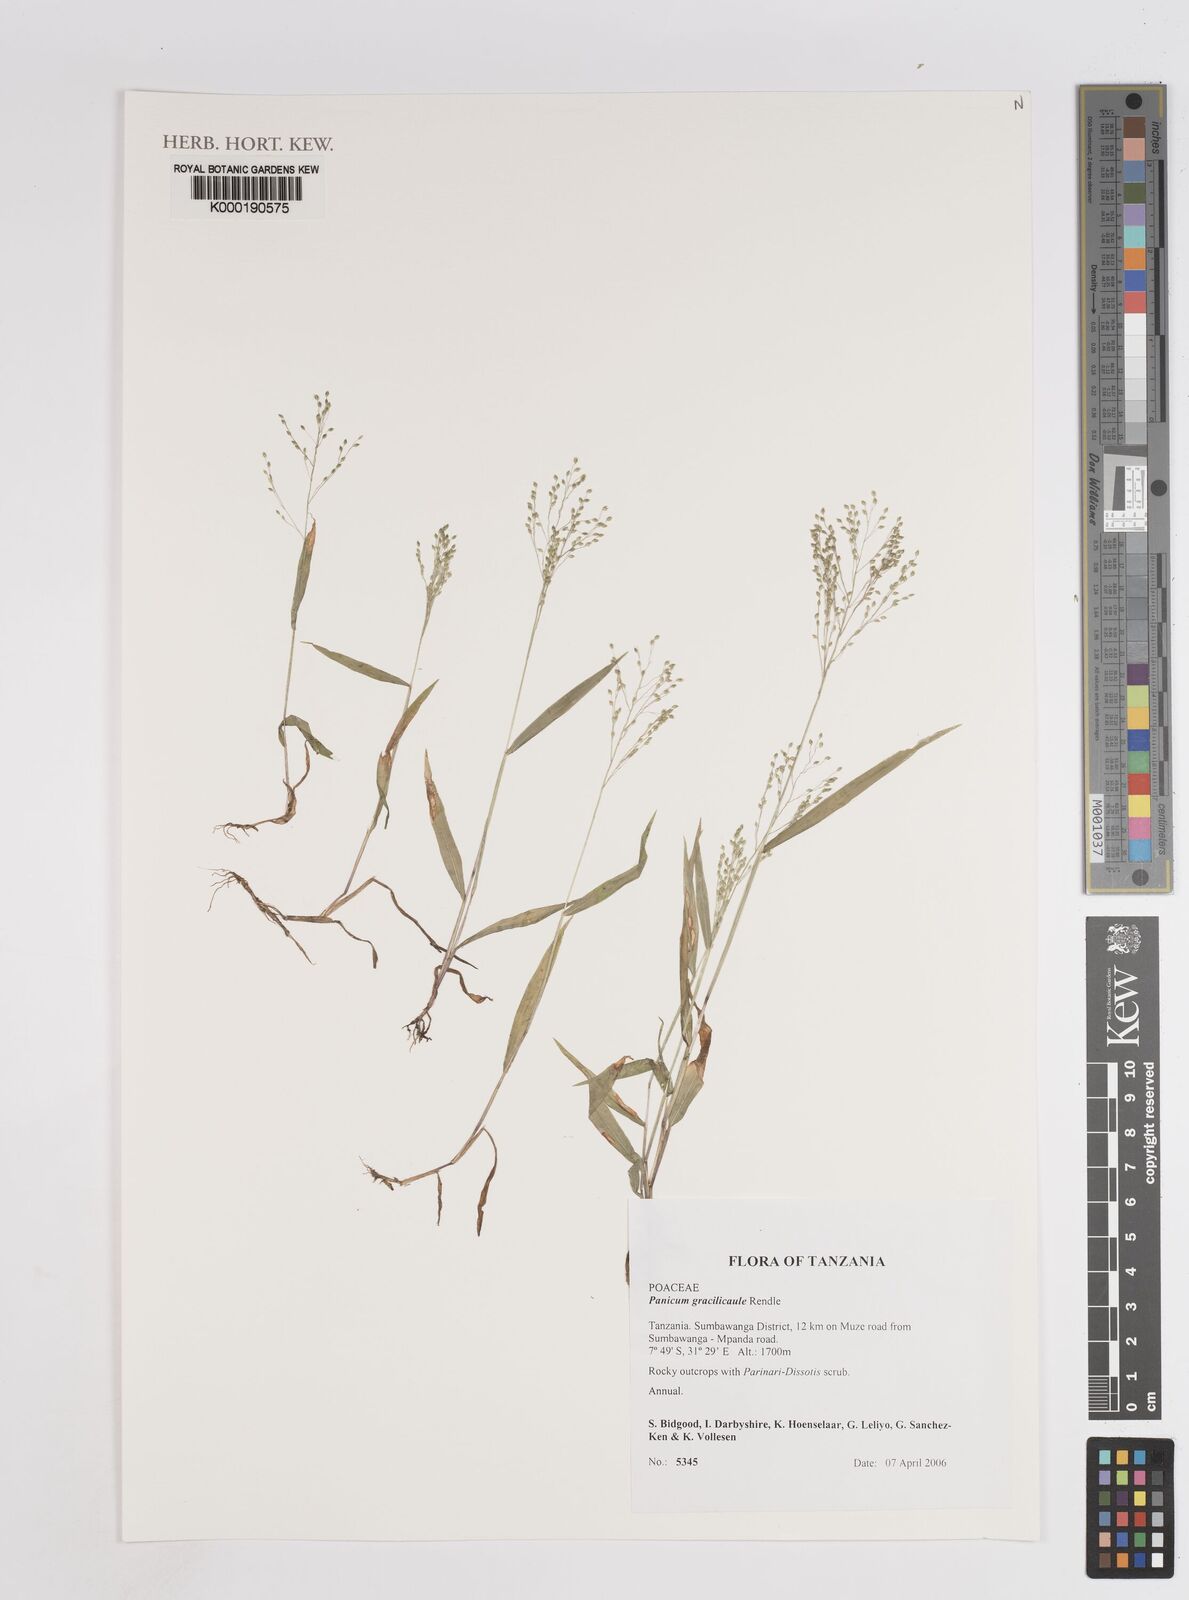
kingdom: Plantae
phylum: Tracheophyta
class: Liliopsida
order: Poales
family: Poaceae
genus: Trichanthecium
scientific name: Trichanthecium gracilicaule
